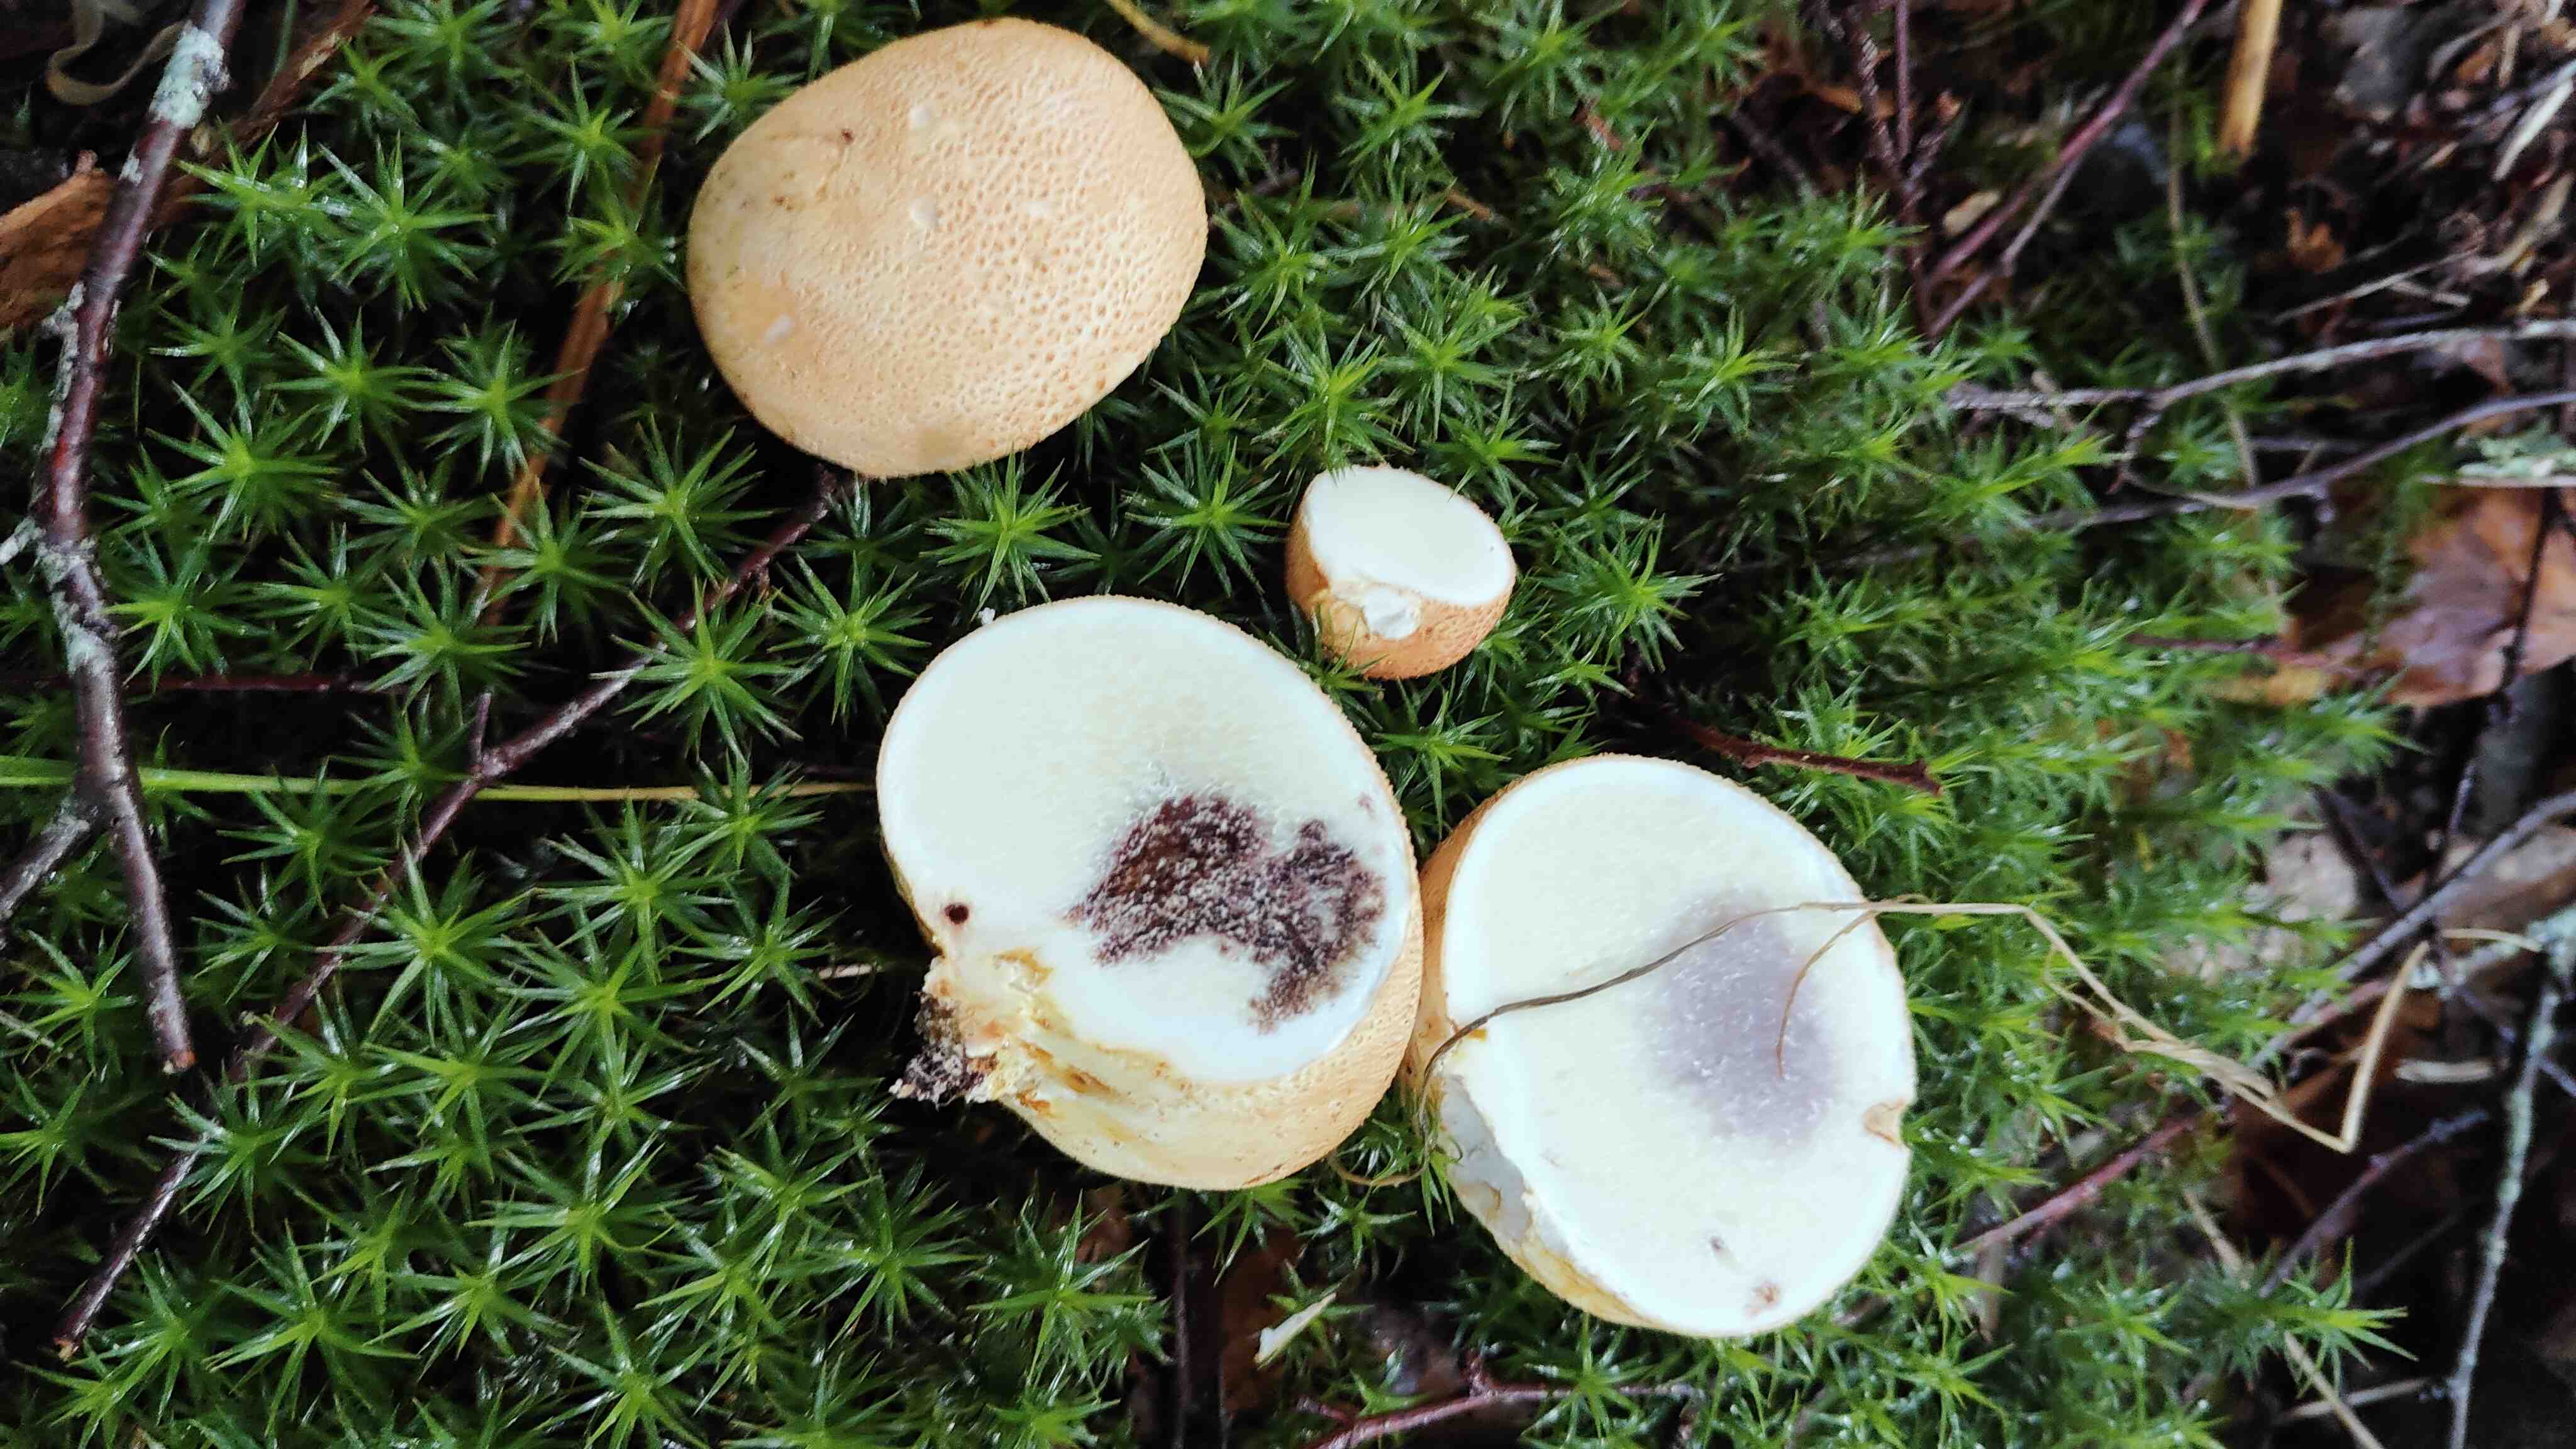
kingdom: Fungi
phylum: Basidiomycota
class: Agaricomycetes
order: Boletales
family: Sclerodermataceae
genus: Scleroderma
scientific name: Scleroderma citrinum
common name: almindelig bruskbold
